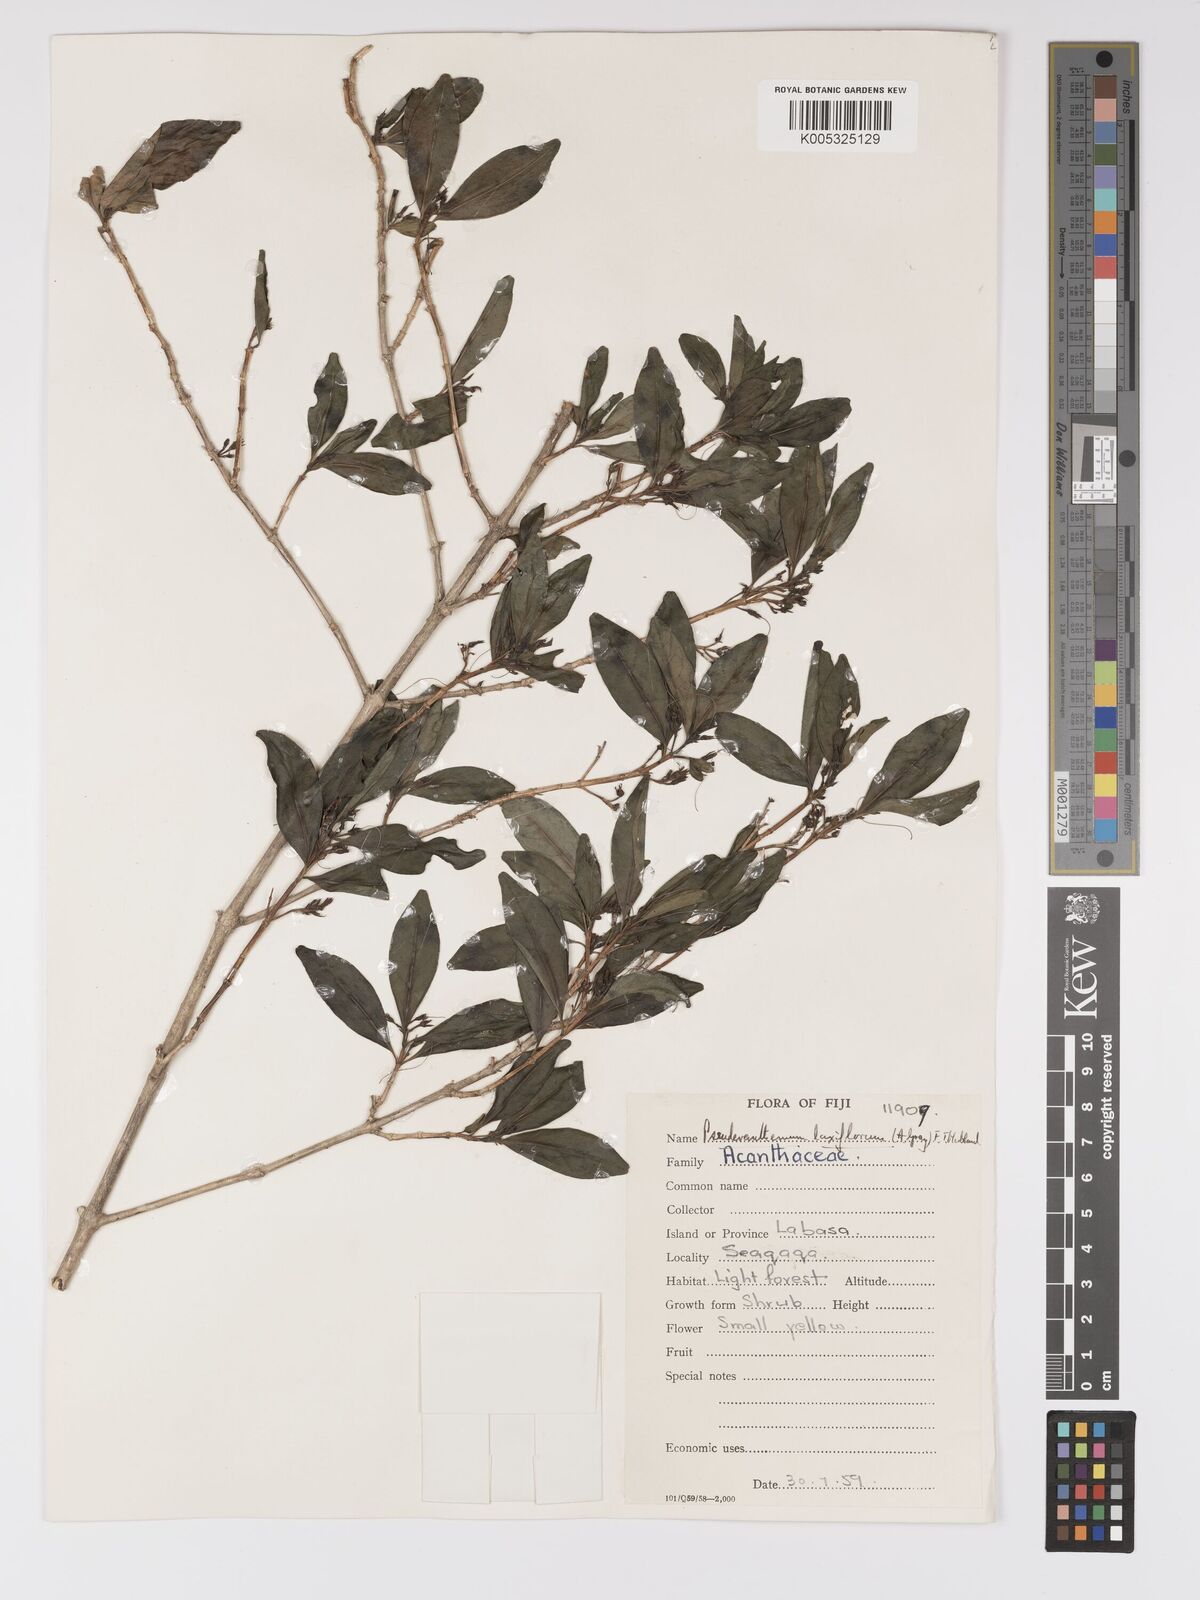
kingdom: Plantae
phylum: Tracheophyta
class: Magnoliopsida
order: Lamiales
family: Acanthaceae
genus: Pseuderanthemum
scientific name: Pseuderanthemum laxiflorum
